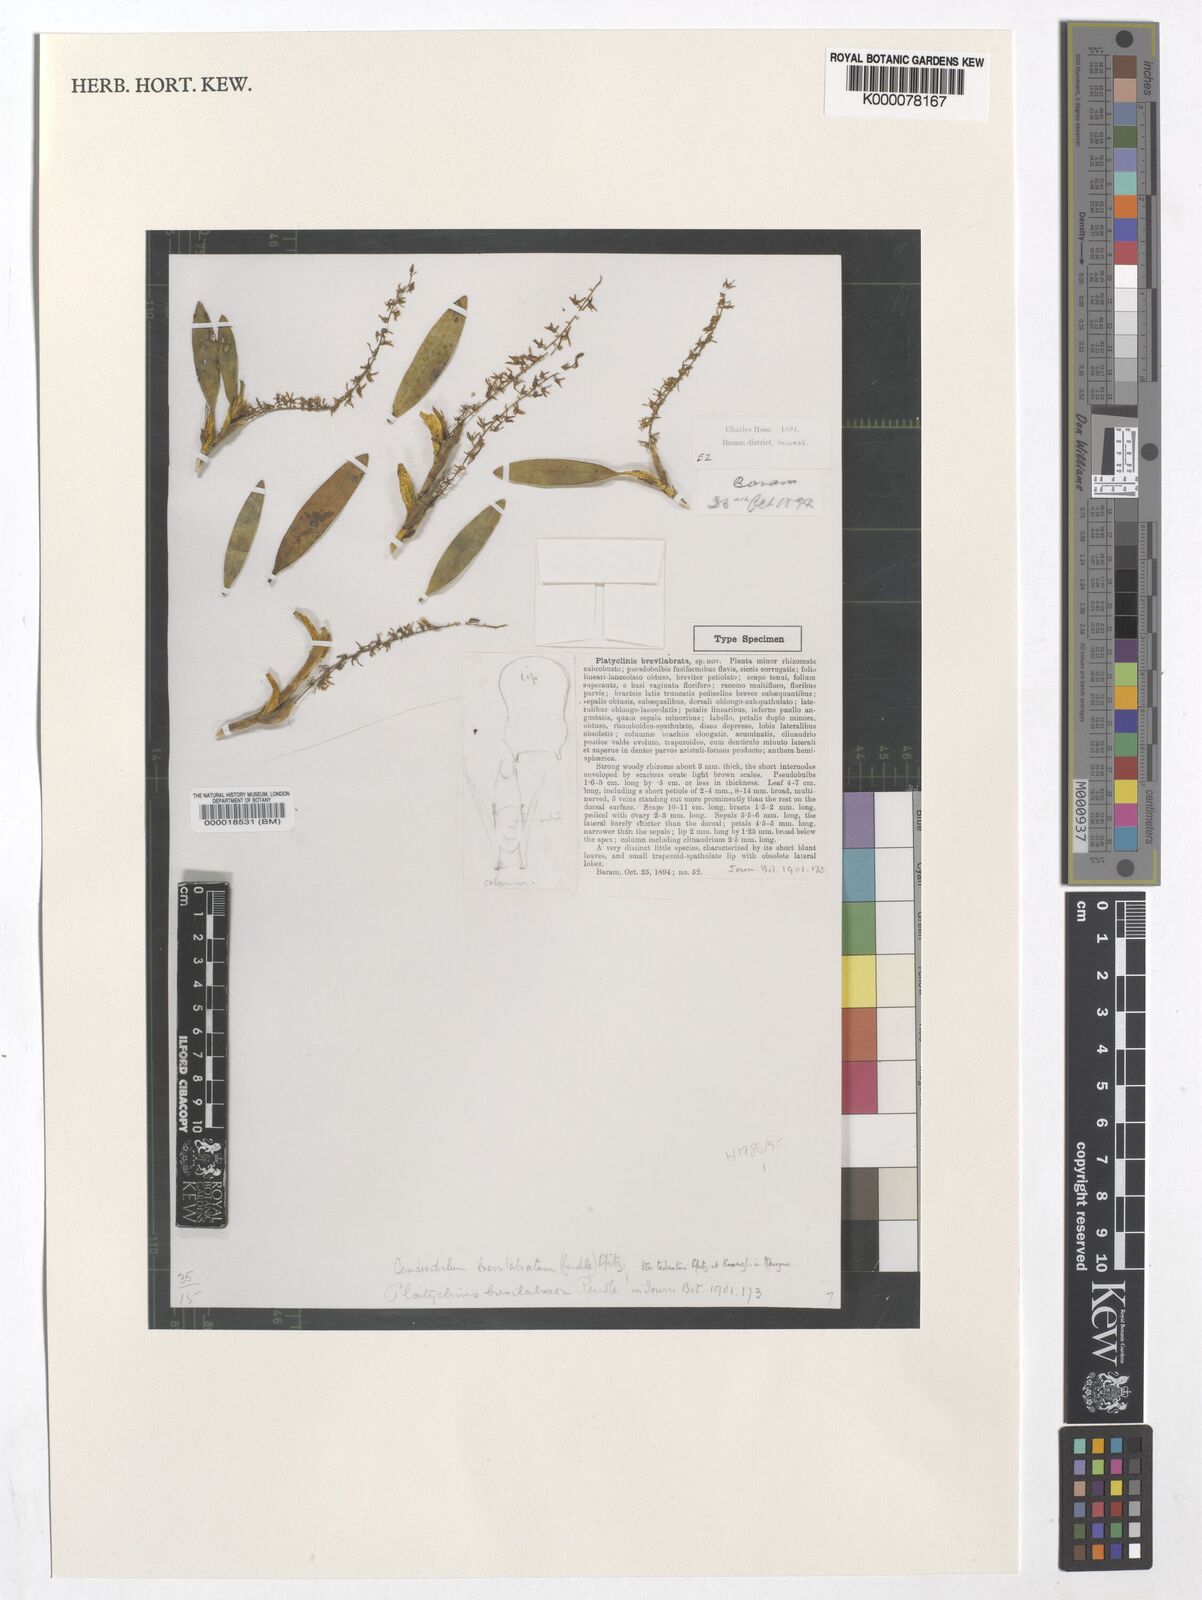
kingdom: Plantae
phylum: Tracheophyta
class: Liliopsida
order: Asparagales
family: Orchidaceae
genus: Coelogyne
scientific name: Coelogyne pallidiflavens
